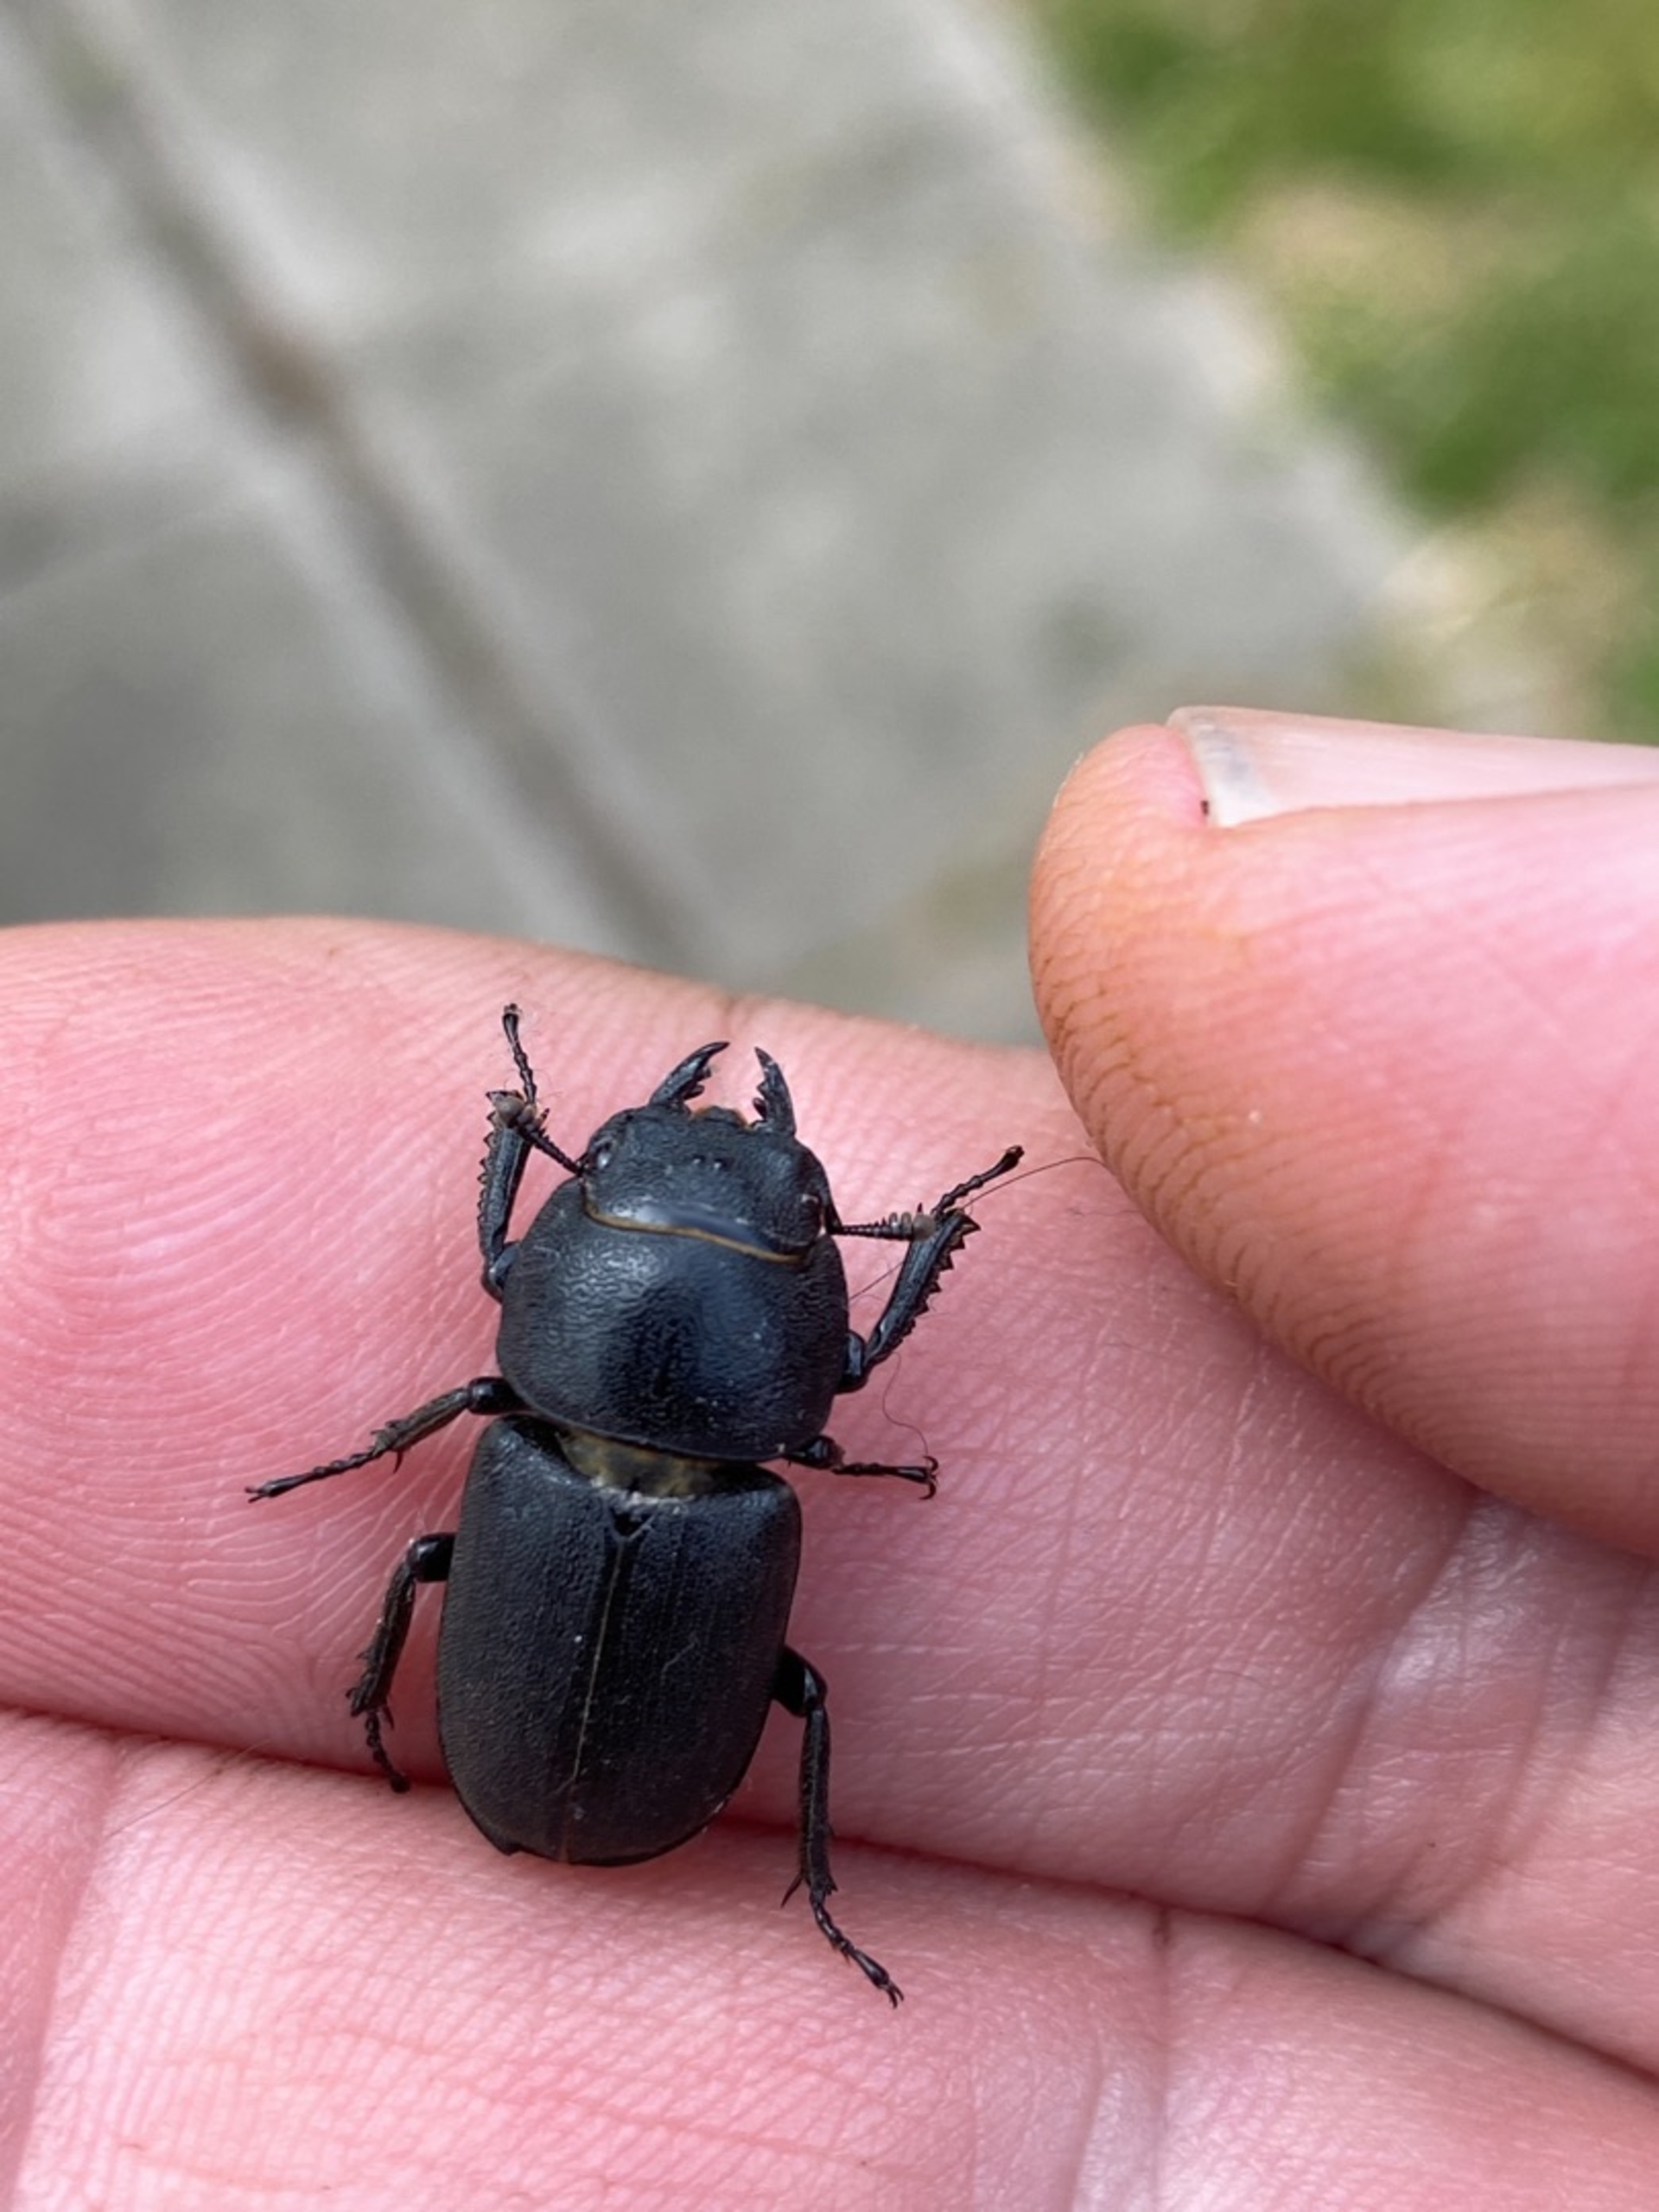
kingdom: Animalia
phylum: Arthropoda
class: Insecta
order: Coleoptera
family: Lucanidae
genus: Dorcus
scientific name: Dorcus parallelipipedus
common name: Bøghjort
